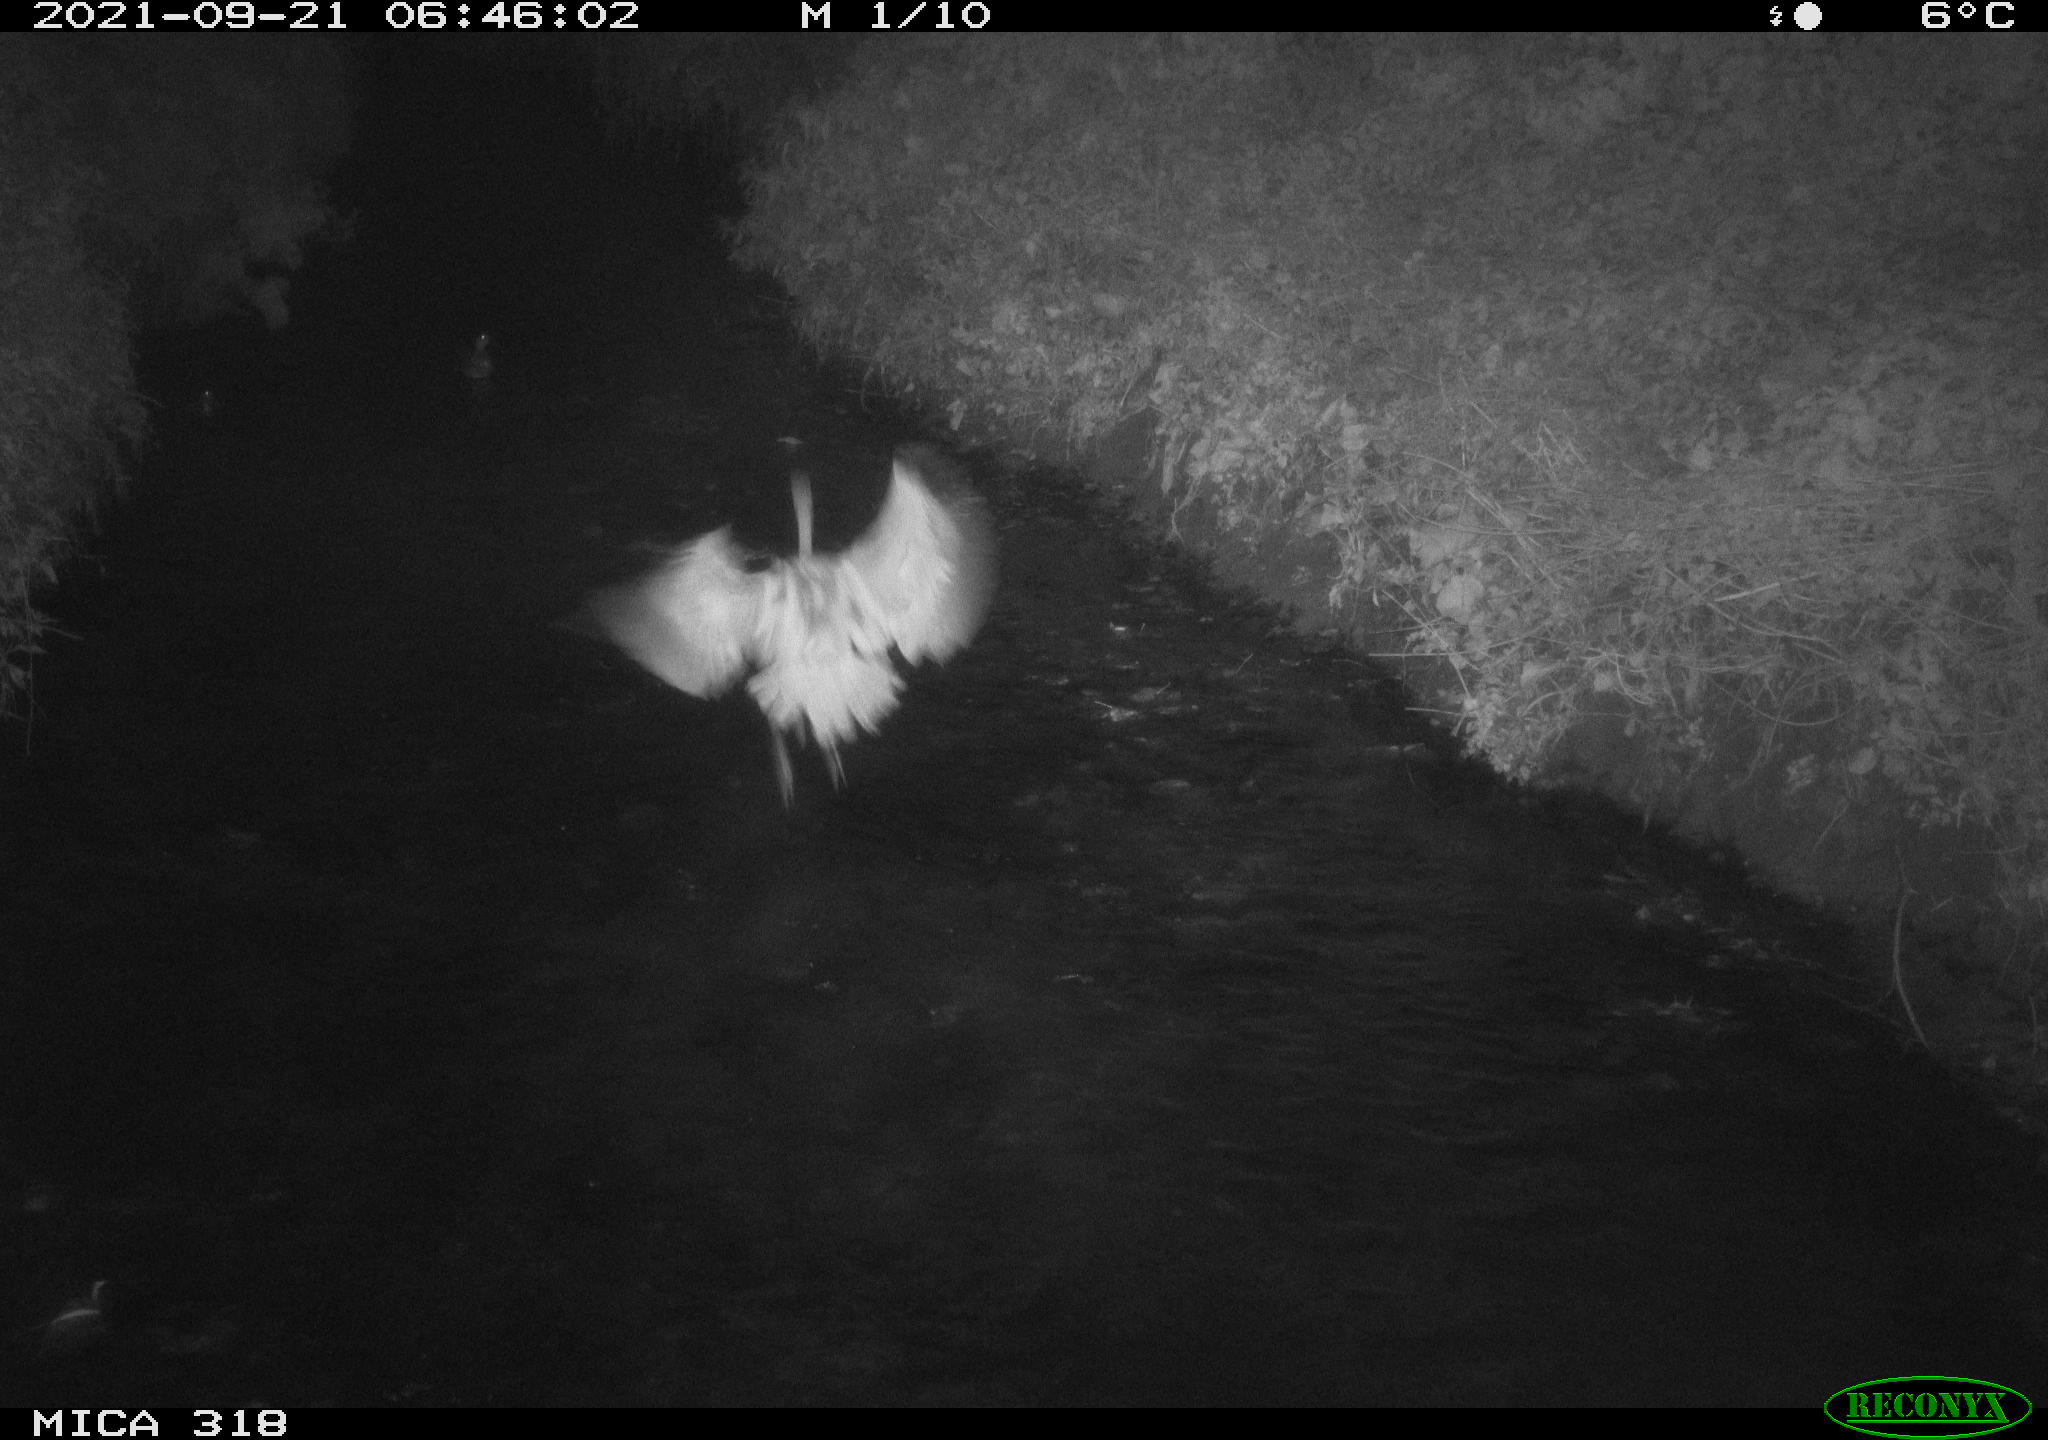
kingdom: Animalia
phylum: Chordata
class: Aves
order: Pelecaniformes
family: Ardeidae
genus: Ardea
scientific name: Ardea cinerea
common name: Grey heron
